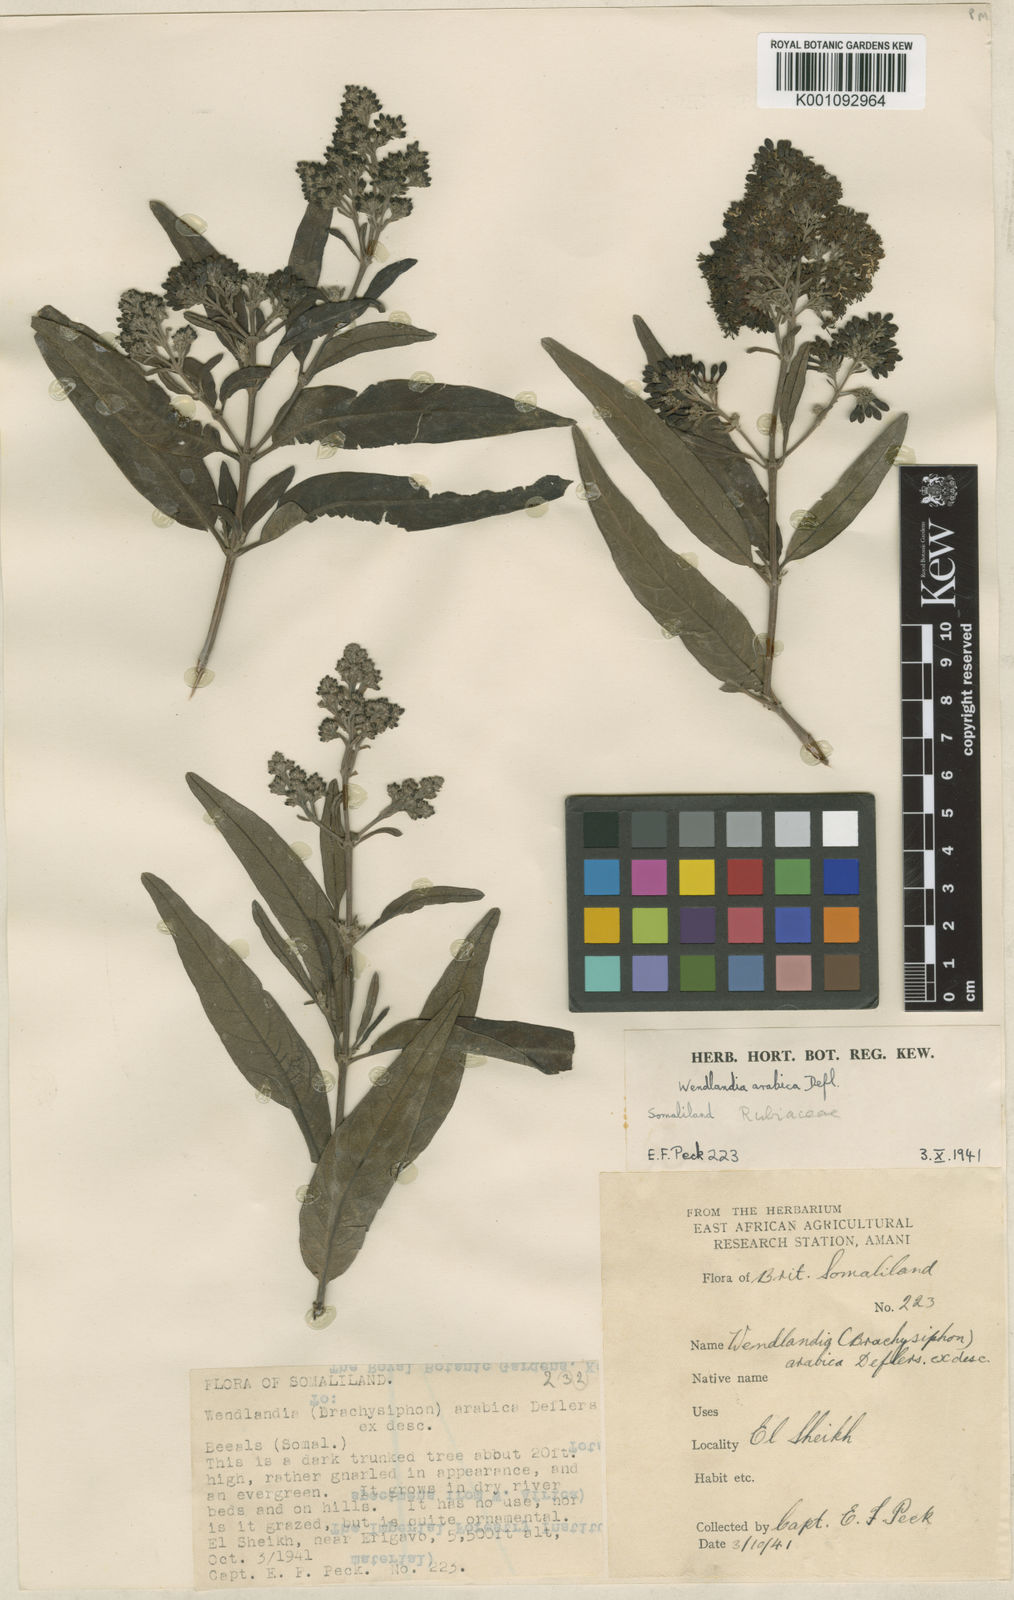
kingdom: Plantae
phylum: Tracheophyta
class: Magnoliopsida
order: Gentianales
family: Rubiaceae
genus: Wendlandia
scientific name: Wendlandia arabica
